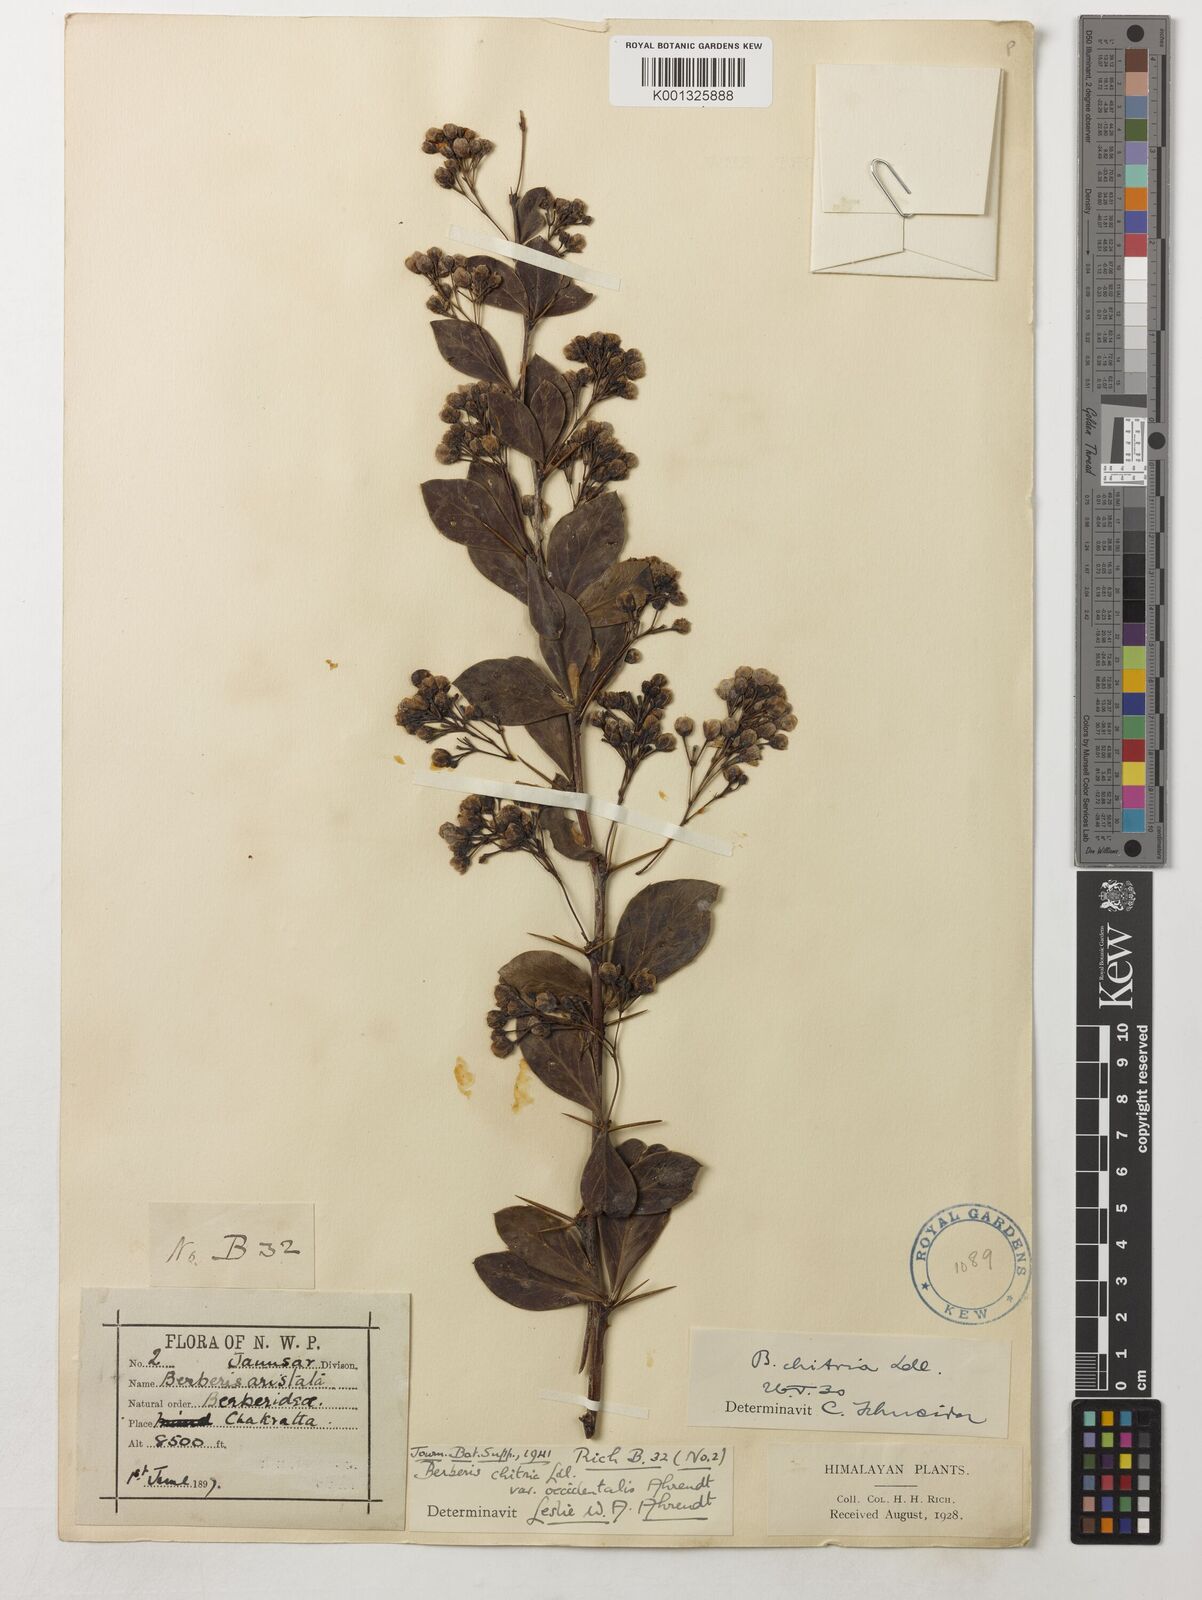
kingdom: Plantae
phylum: Tracheophyta
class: Magnoliopsida
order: Ranunculales
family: Berberidaceae
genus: Berberis
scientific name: Berberis chitria
